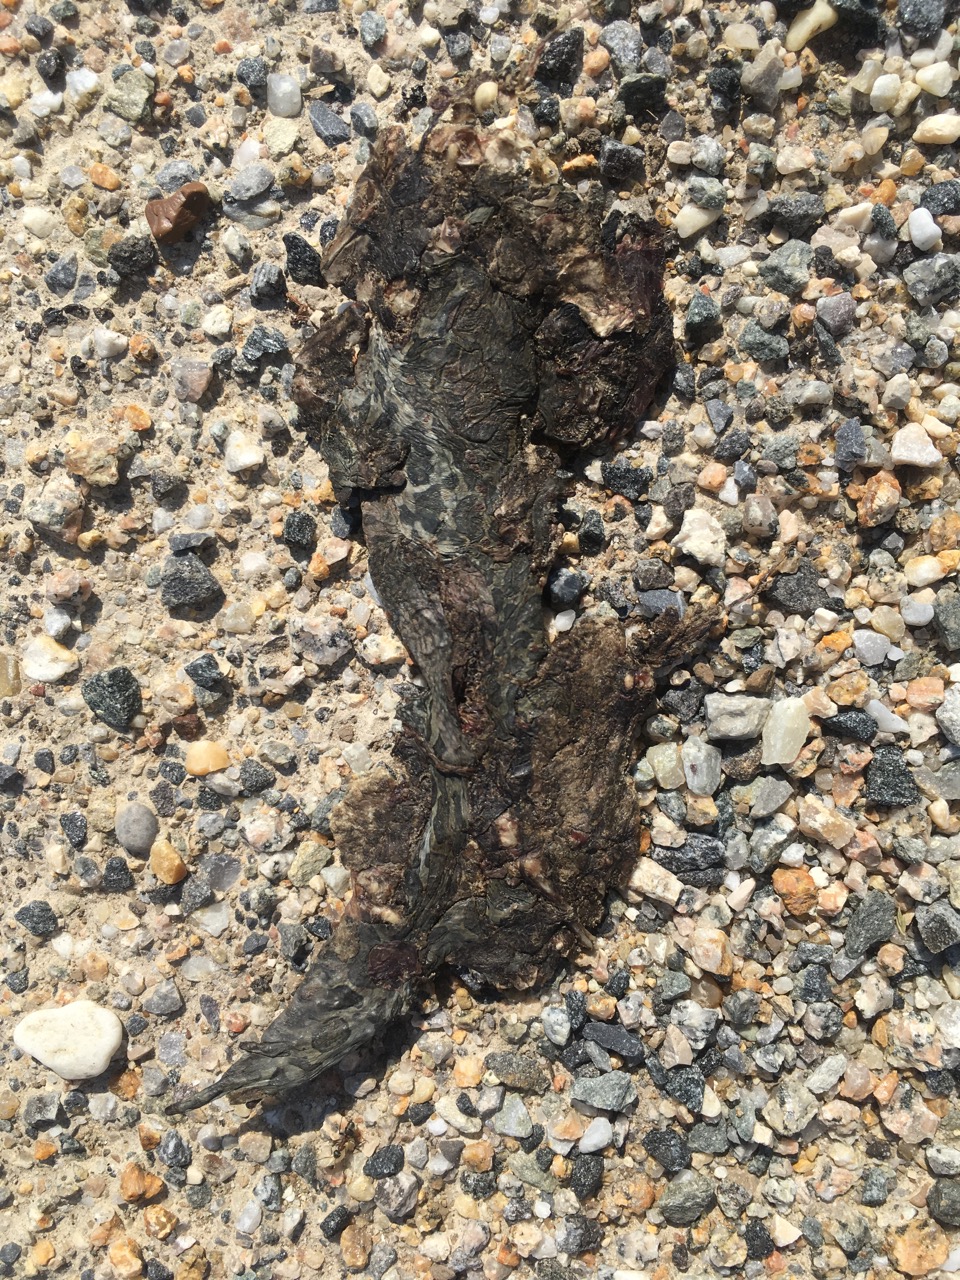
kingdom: Animalia
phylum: Chordata
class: Amphibia
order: Anura
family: Bufonidae
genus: Bufotes
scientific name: Bufotes viridis
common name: European green toad
